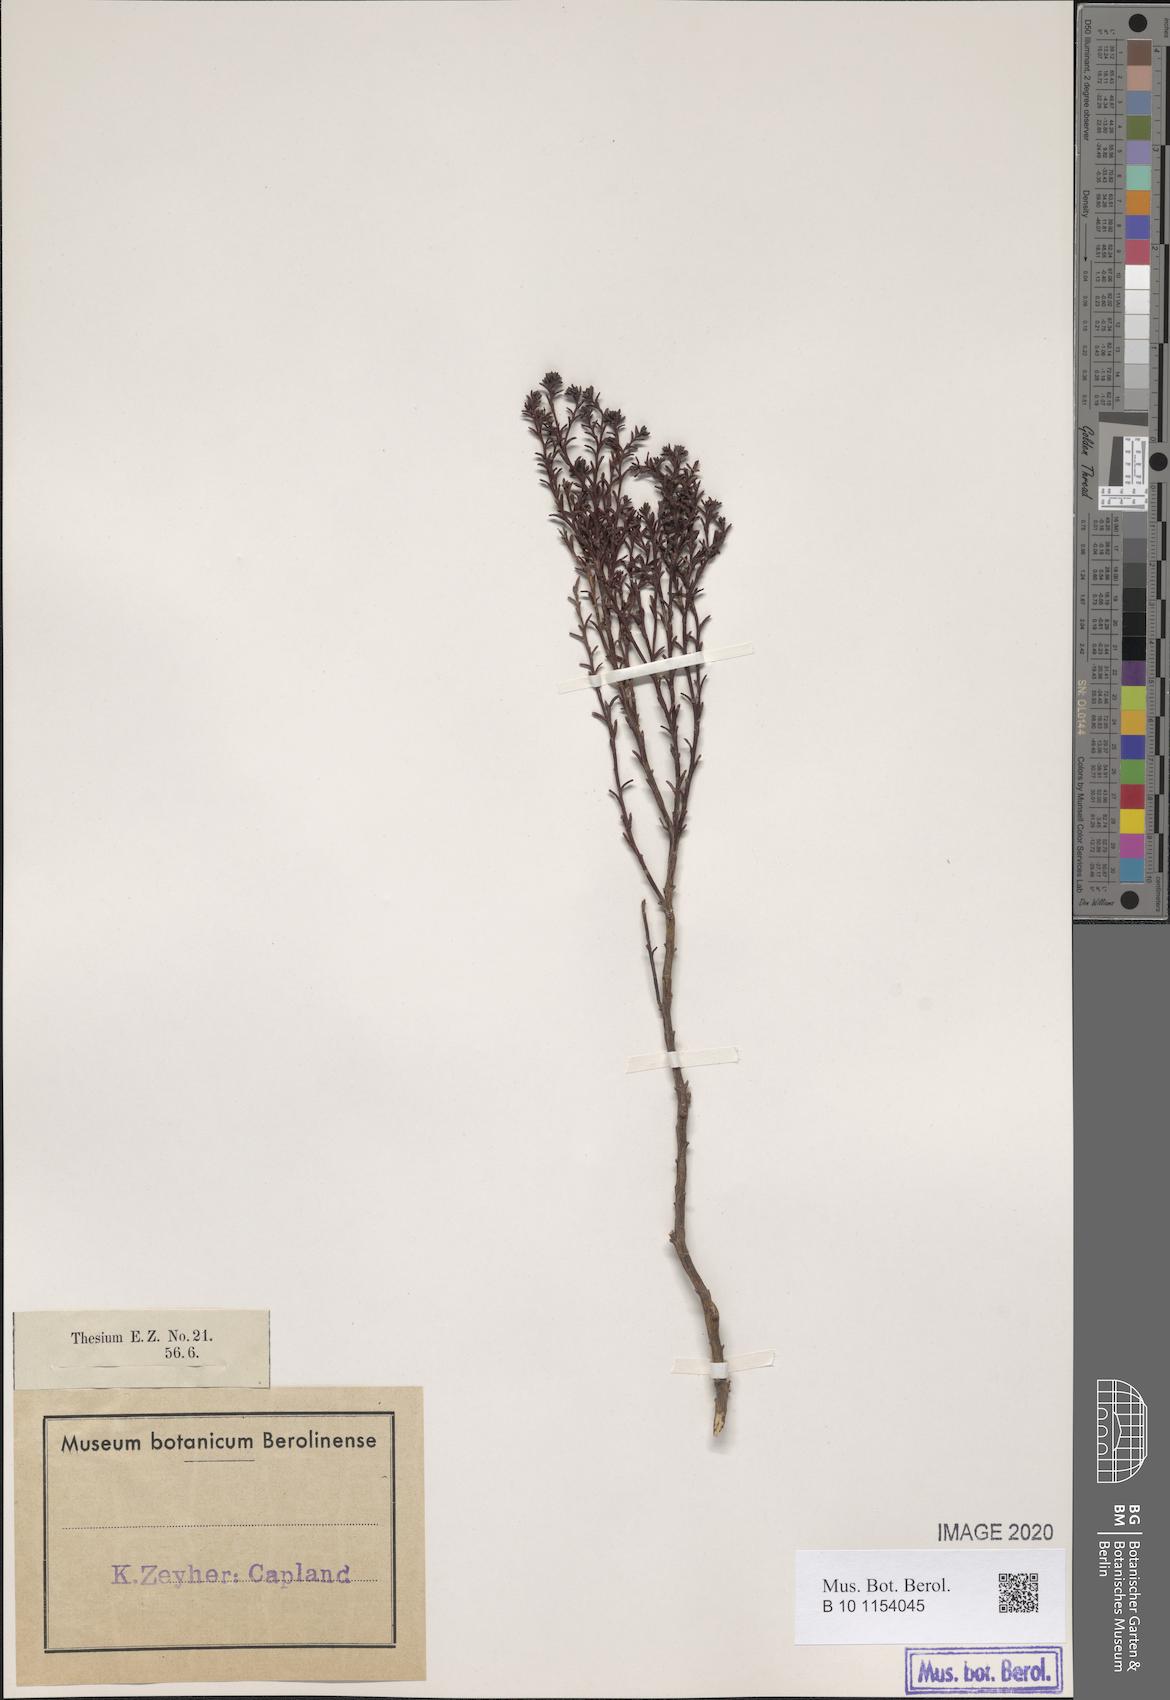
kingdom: Plantae
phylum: Tracheophyta
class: Magnoliopsida
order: Santalales
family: Thesiaceae
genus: Thesium
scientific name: Thesium quinqueflorum
